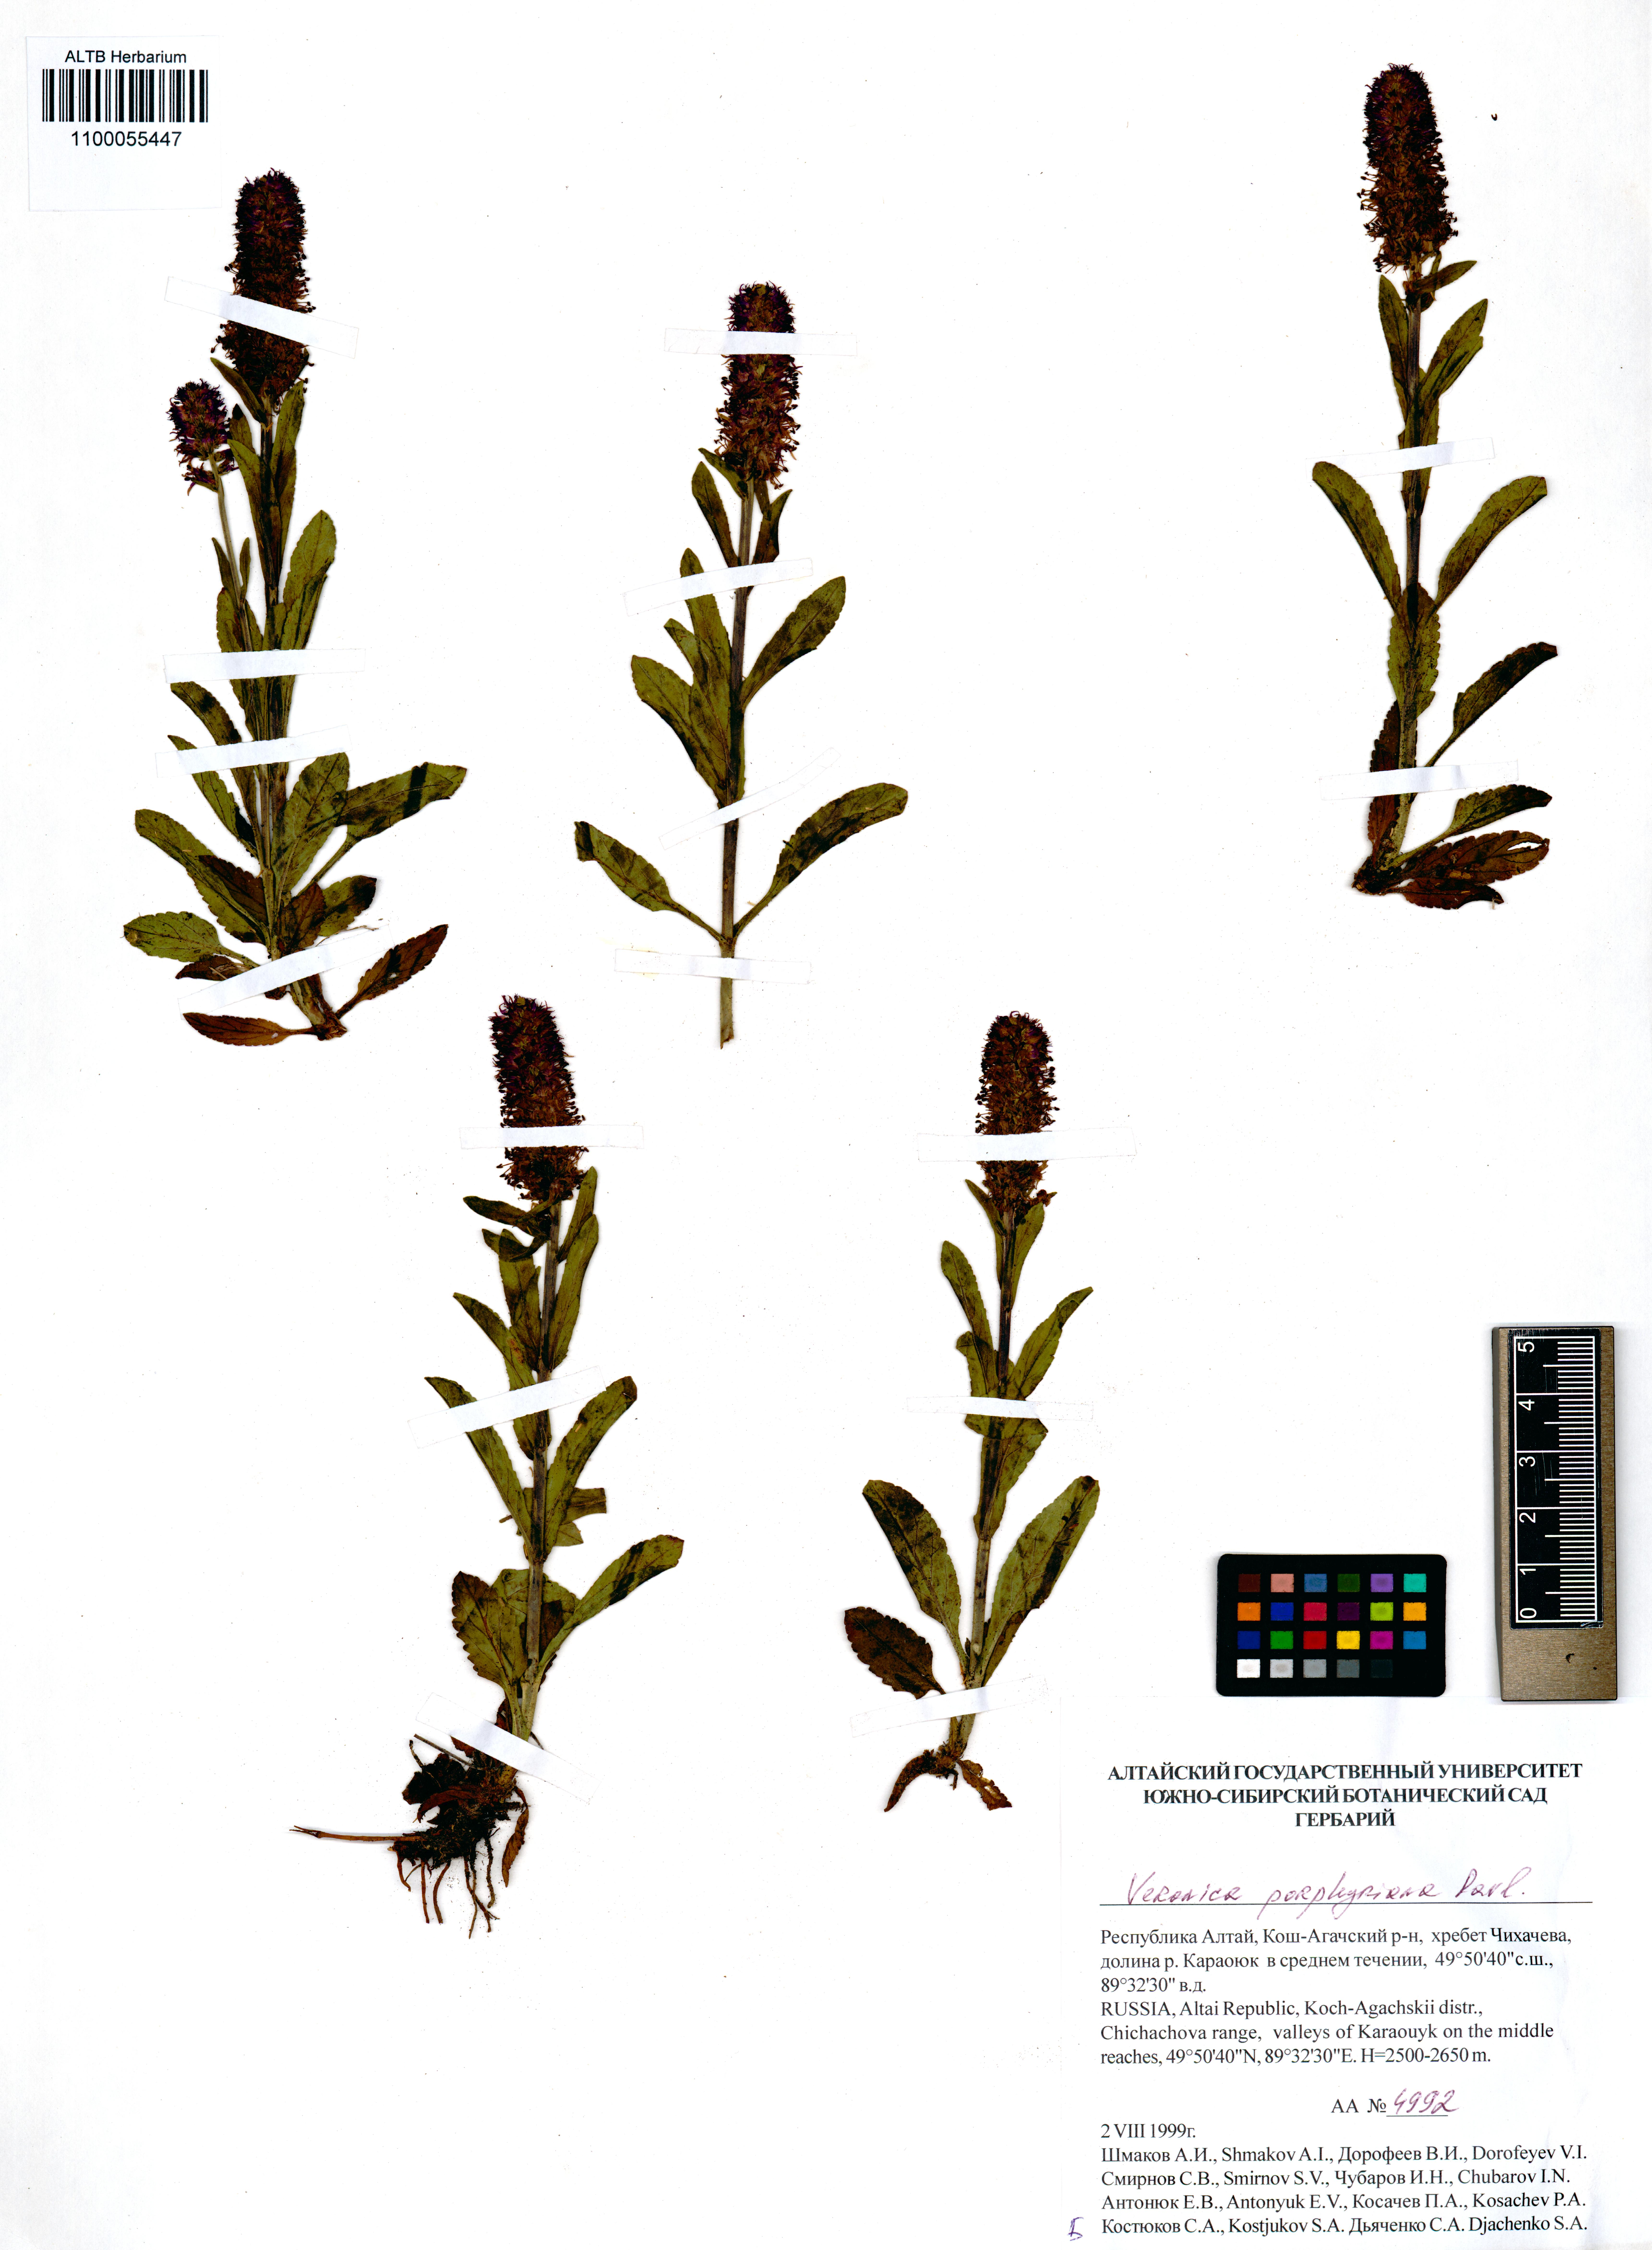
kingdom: Plantae
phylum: Tracheophyta
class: Magnoliopsida
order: Lamiales
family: Plantaginaceae
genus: Veronica
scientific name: Veronica porphyriana
